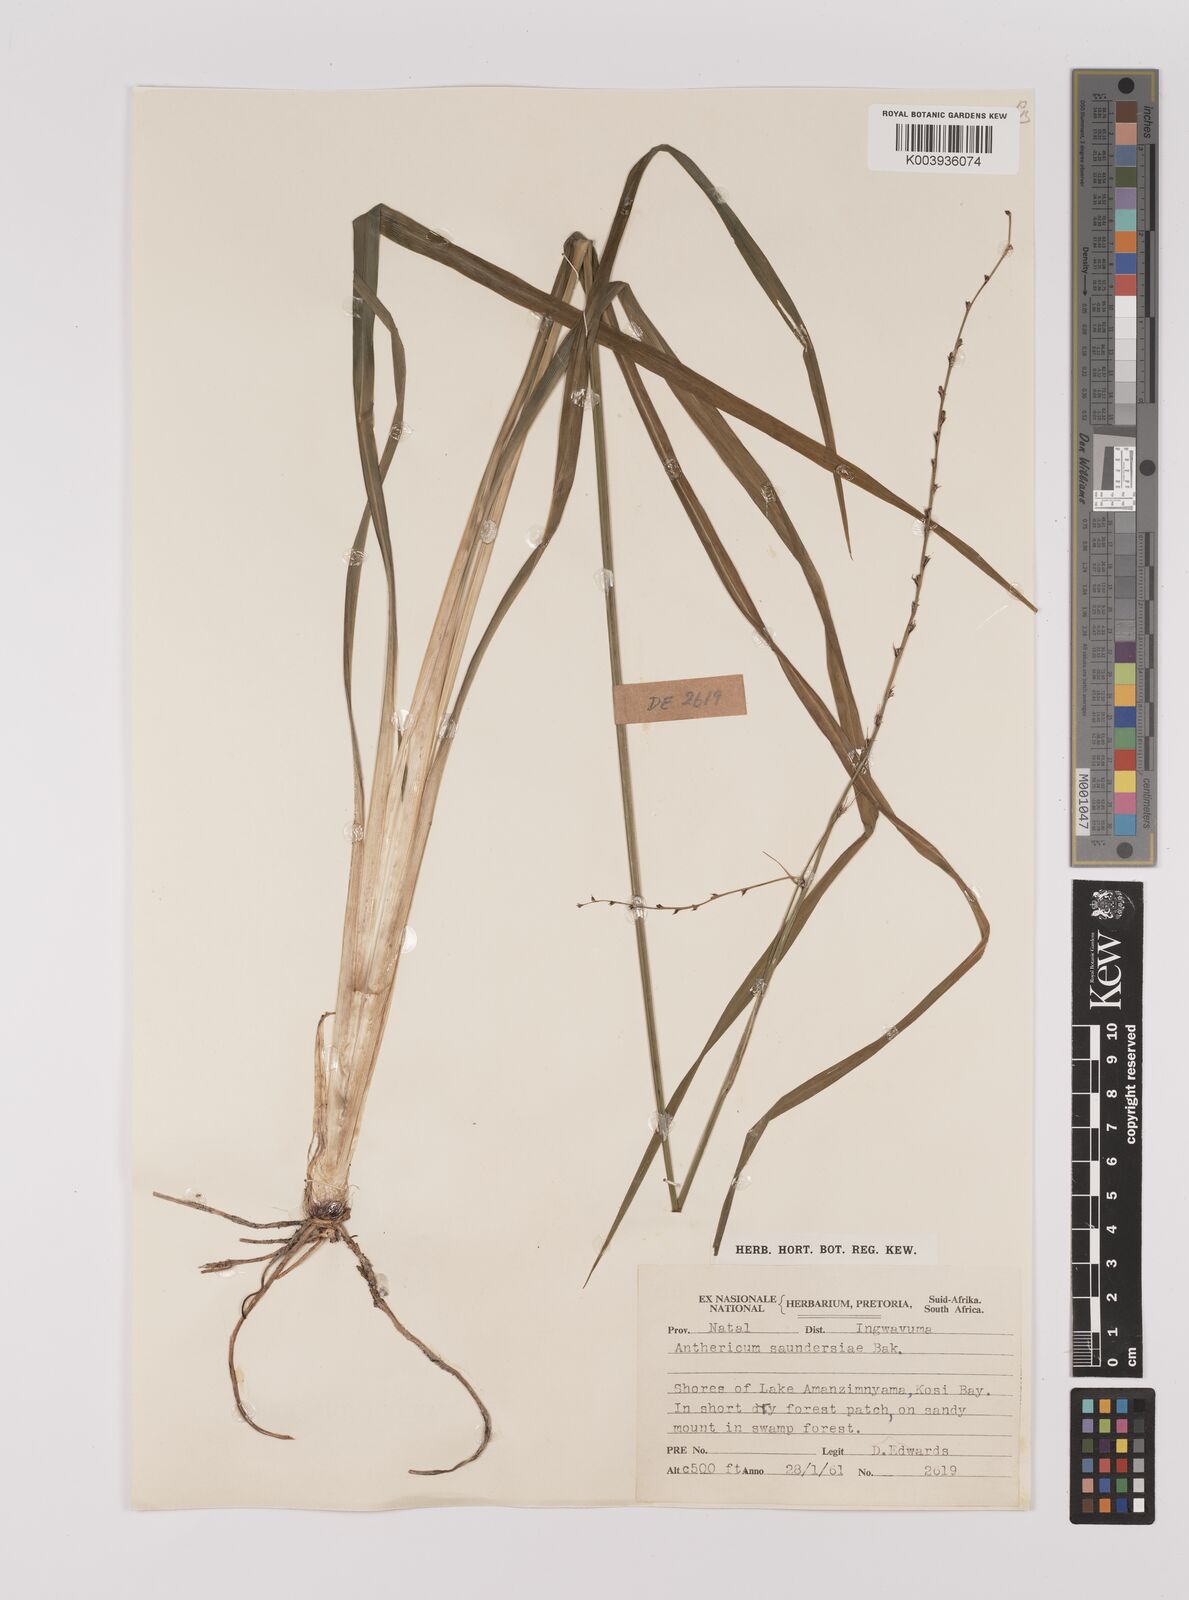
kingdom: Plantae
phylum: Tracheophyta
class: Liliopsida
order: Asparagales
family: Asparagaceae
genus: Chlorophytum
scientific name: Chlorophytum saundersiae
